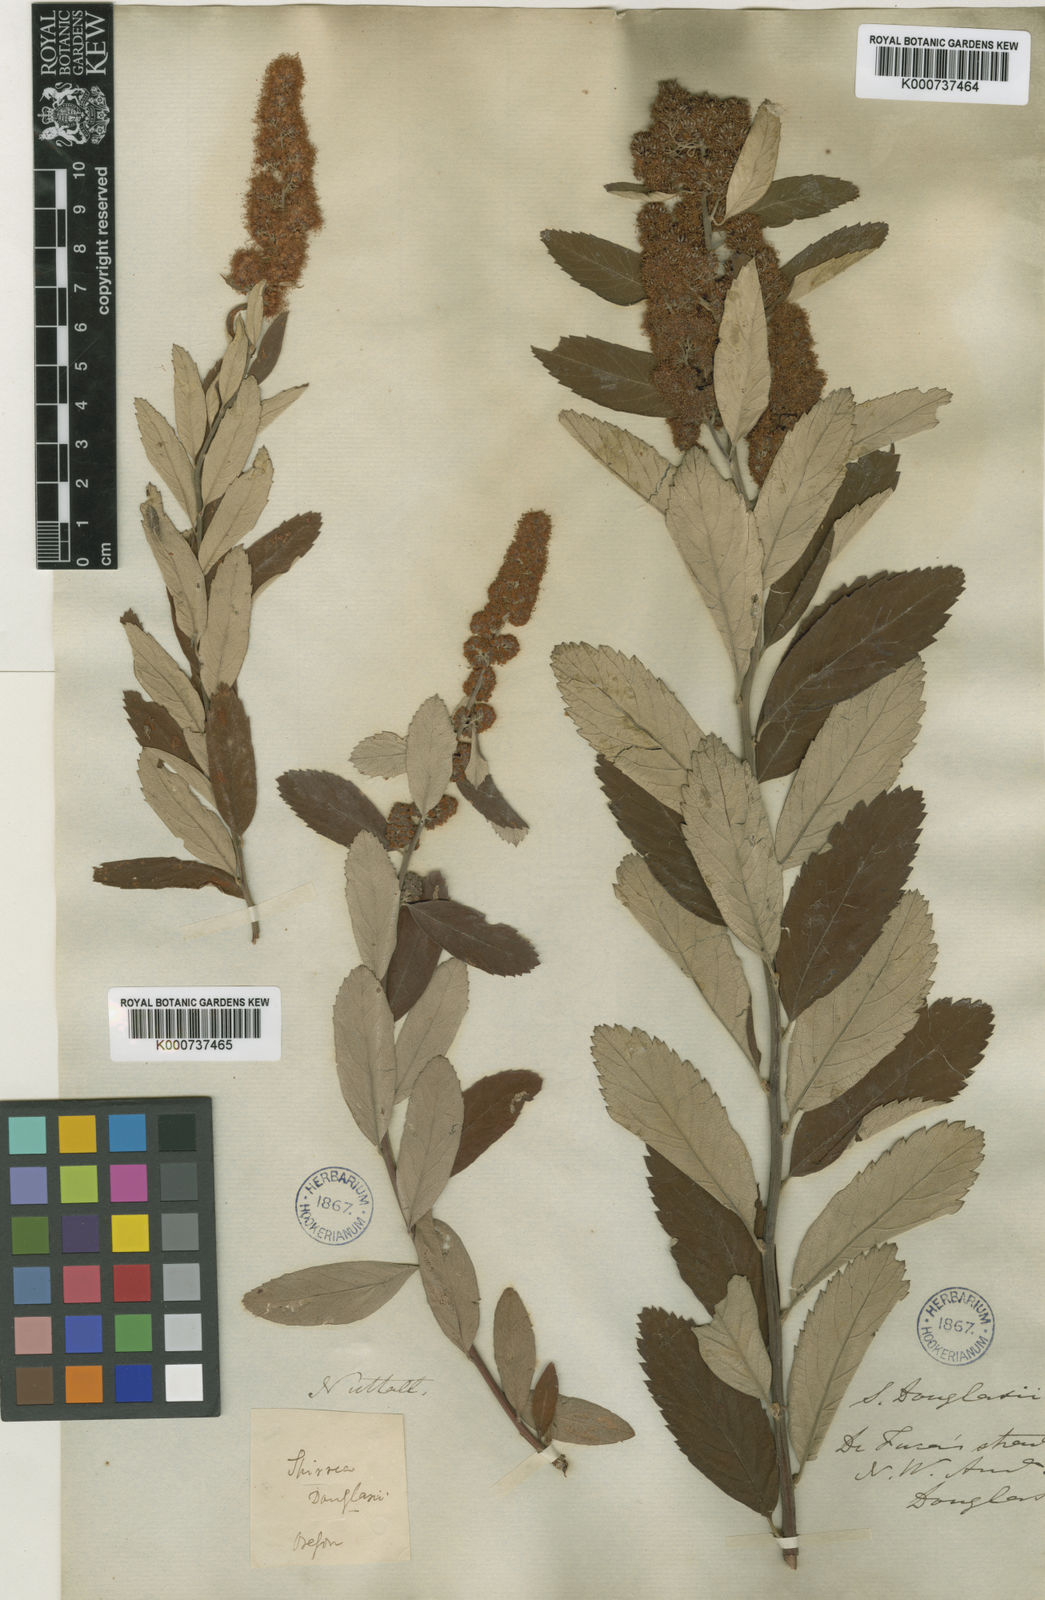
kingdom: Plantae
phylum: Tracheophyta
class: Magnoliopsida
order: Rosales
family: Rosaceae
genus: Spiraea
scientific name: Spiraea douglasii
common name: Steeplebush
